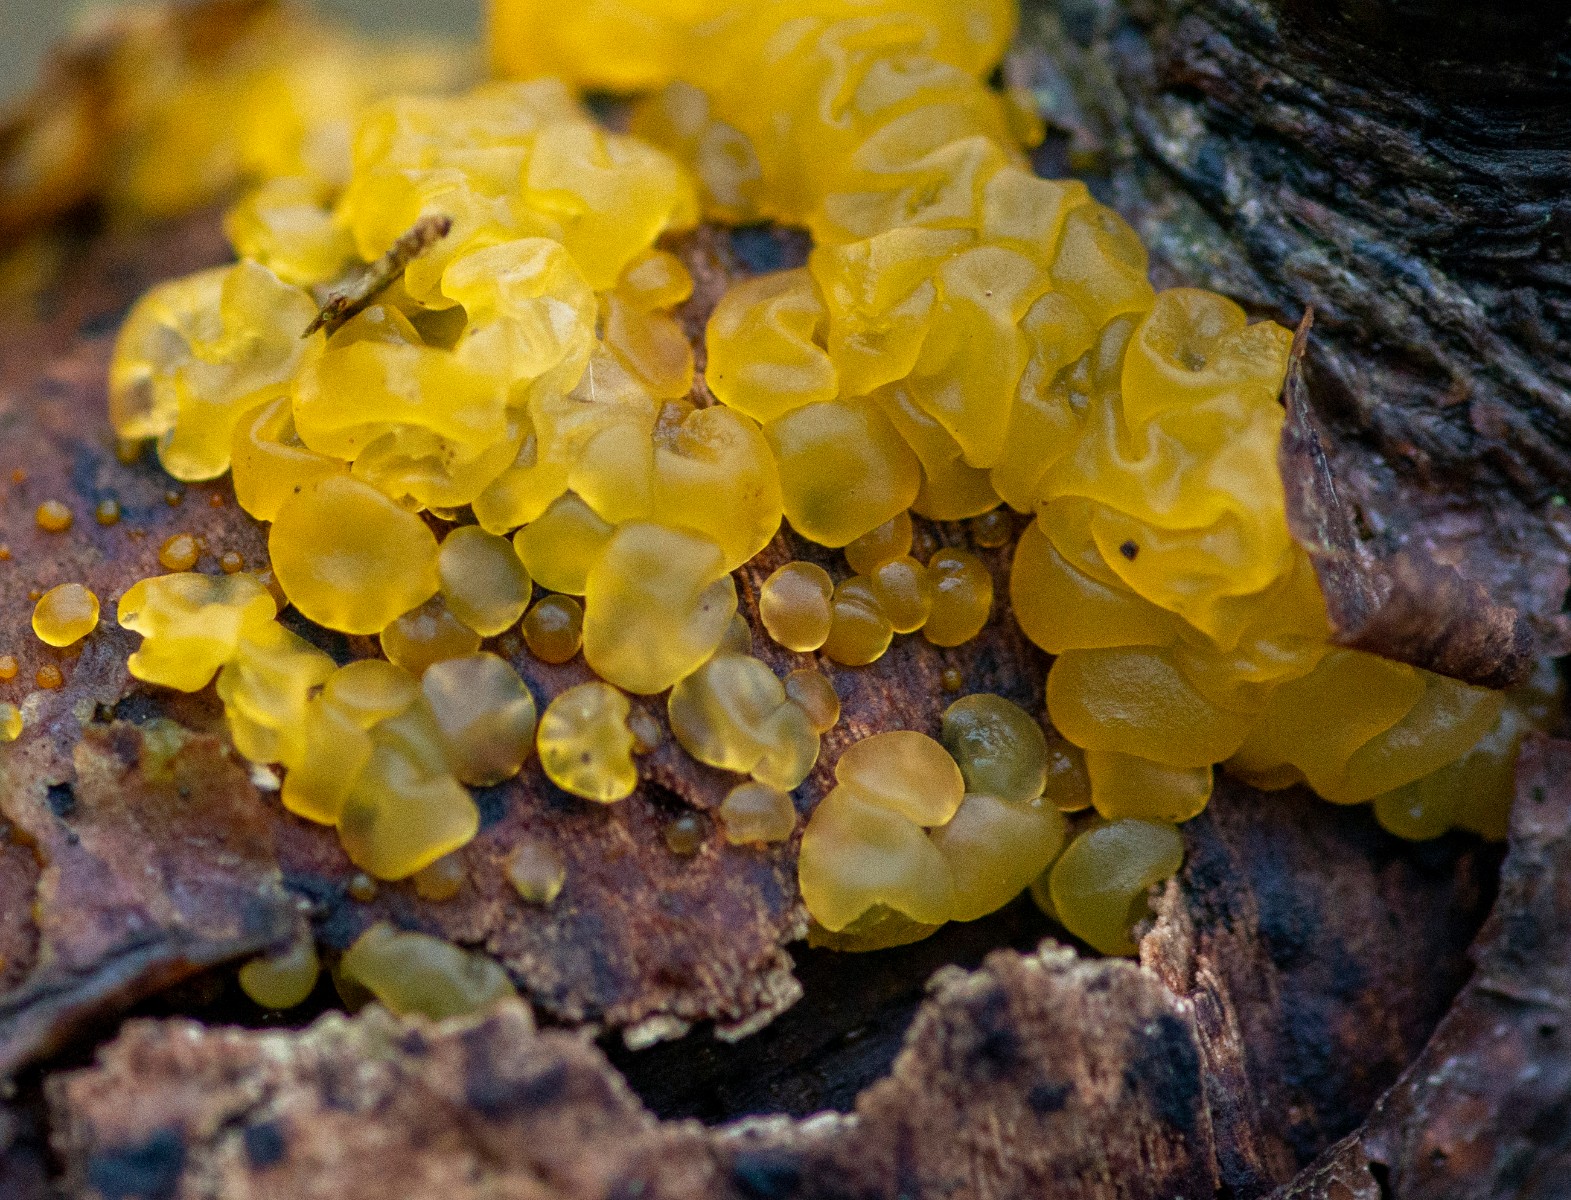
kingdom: Fungi
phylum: Basidiomycota
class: Dacrymycetes
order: Dacrymycetales
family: Dacrymycetaceae
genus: Dacrymyces
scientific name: Dacrymyces lacrymalis
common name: rynket tåresvamp
